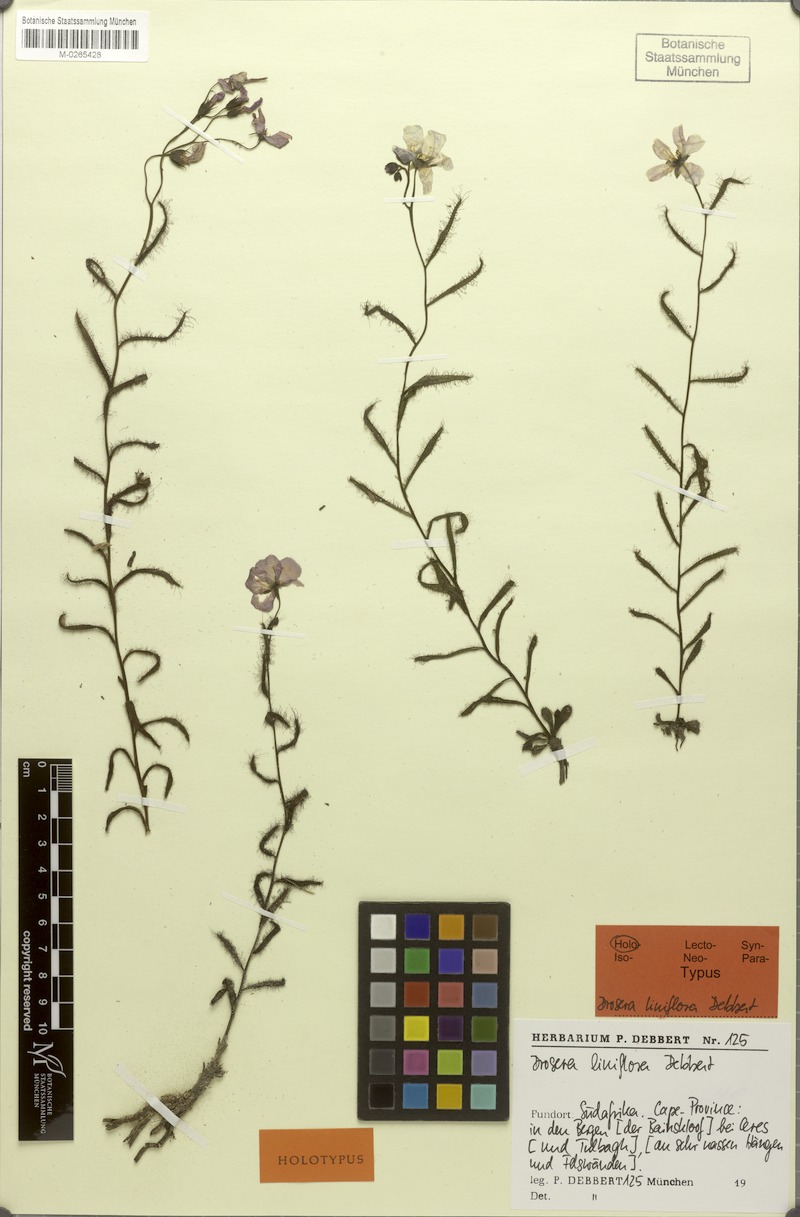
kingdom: Plantae
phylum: Tracheophyta
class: Magnoliopsida
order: Caryophyllales
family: Droseraceae
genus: Drosera
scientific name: Drosera liniflora
